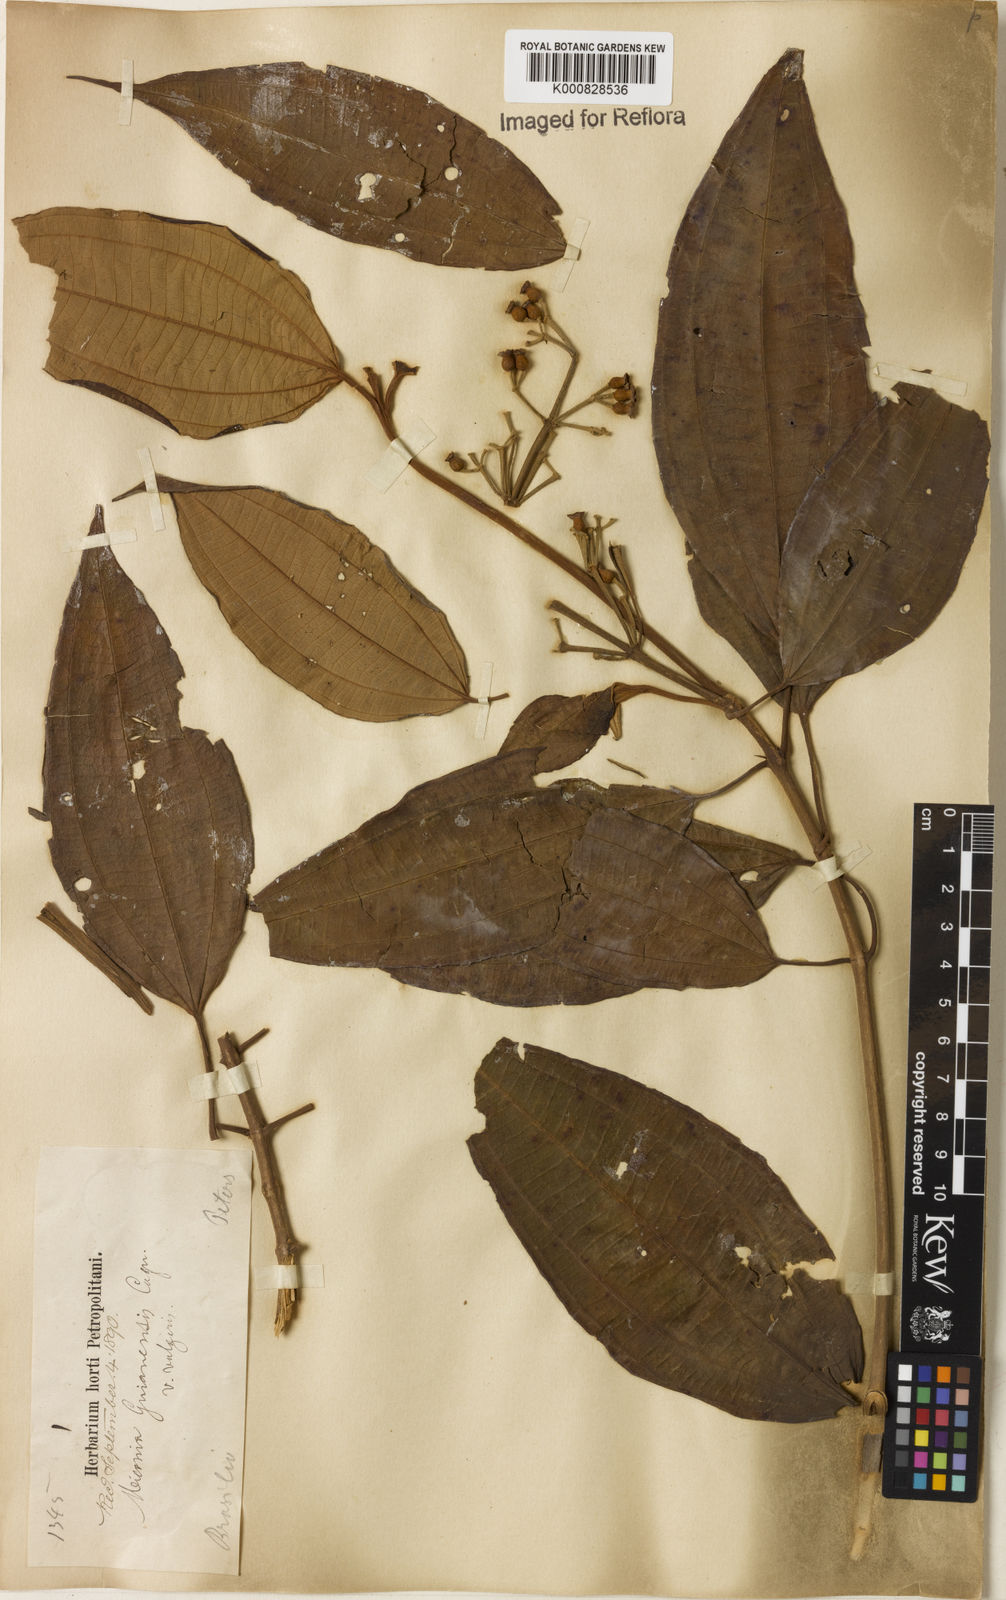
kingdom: Plantae
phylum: Tracheophyta
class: Magnoliopsida
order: Myrtales
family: Melastomataceae
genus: Miconia
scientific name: Miconia mirabilis
